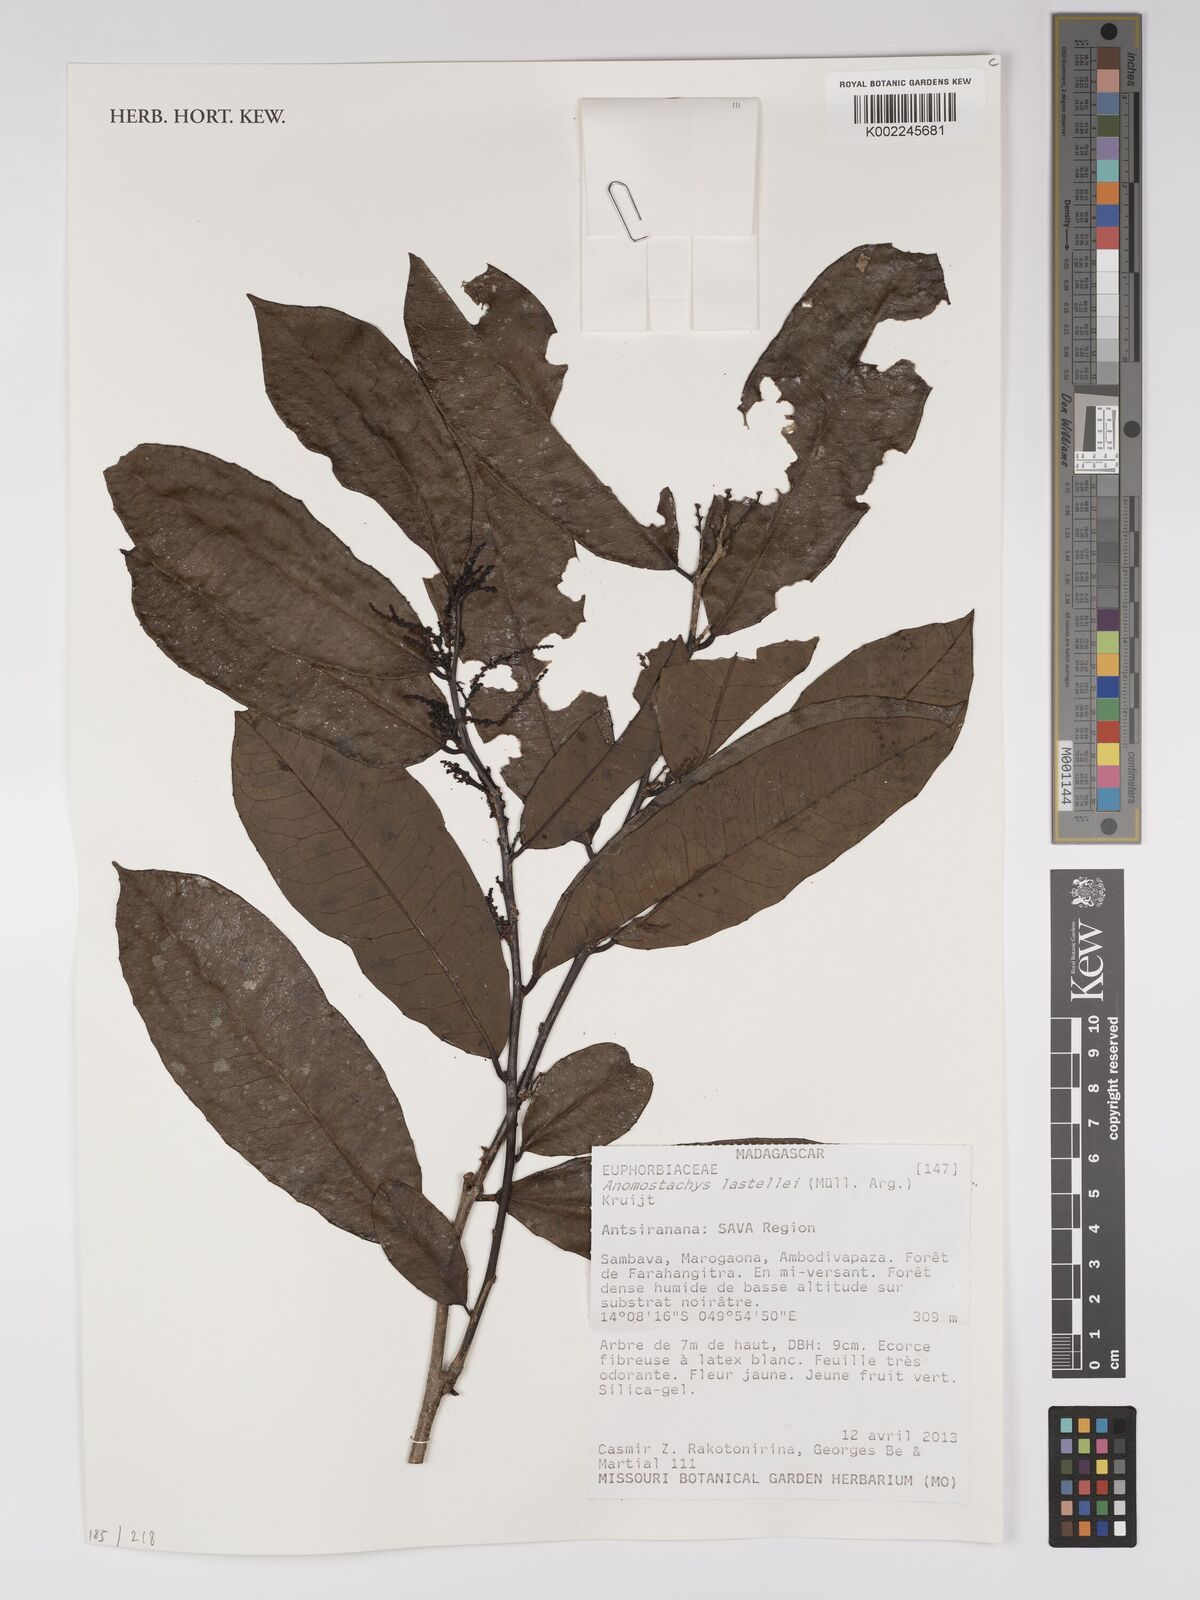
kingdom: Plantae
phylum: Tracheophyta
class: Magnoliopsida
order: Malpighiales
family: Euphorbiaceae
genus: Anomostachys
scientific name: Anomostachys lastellei
